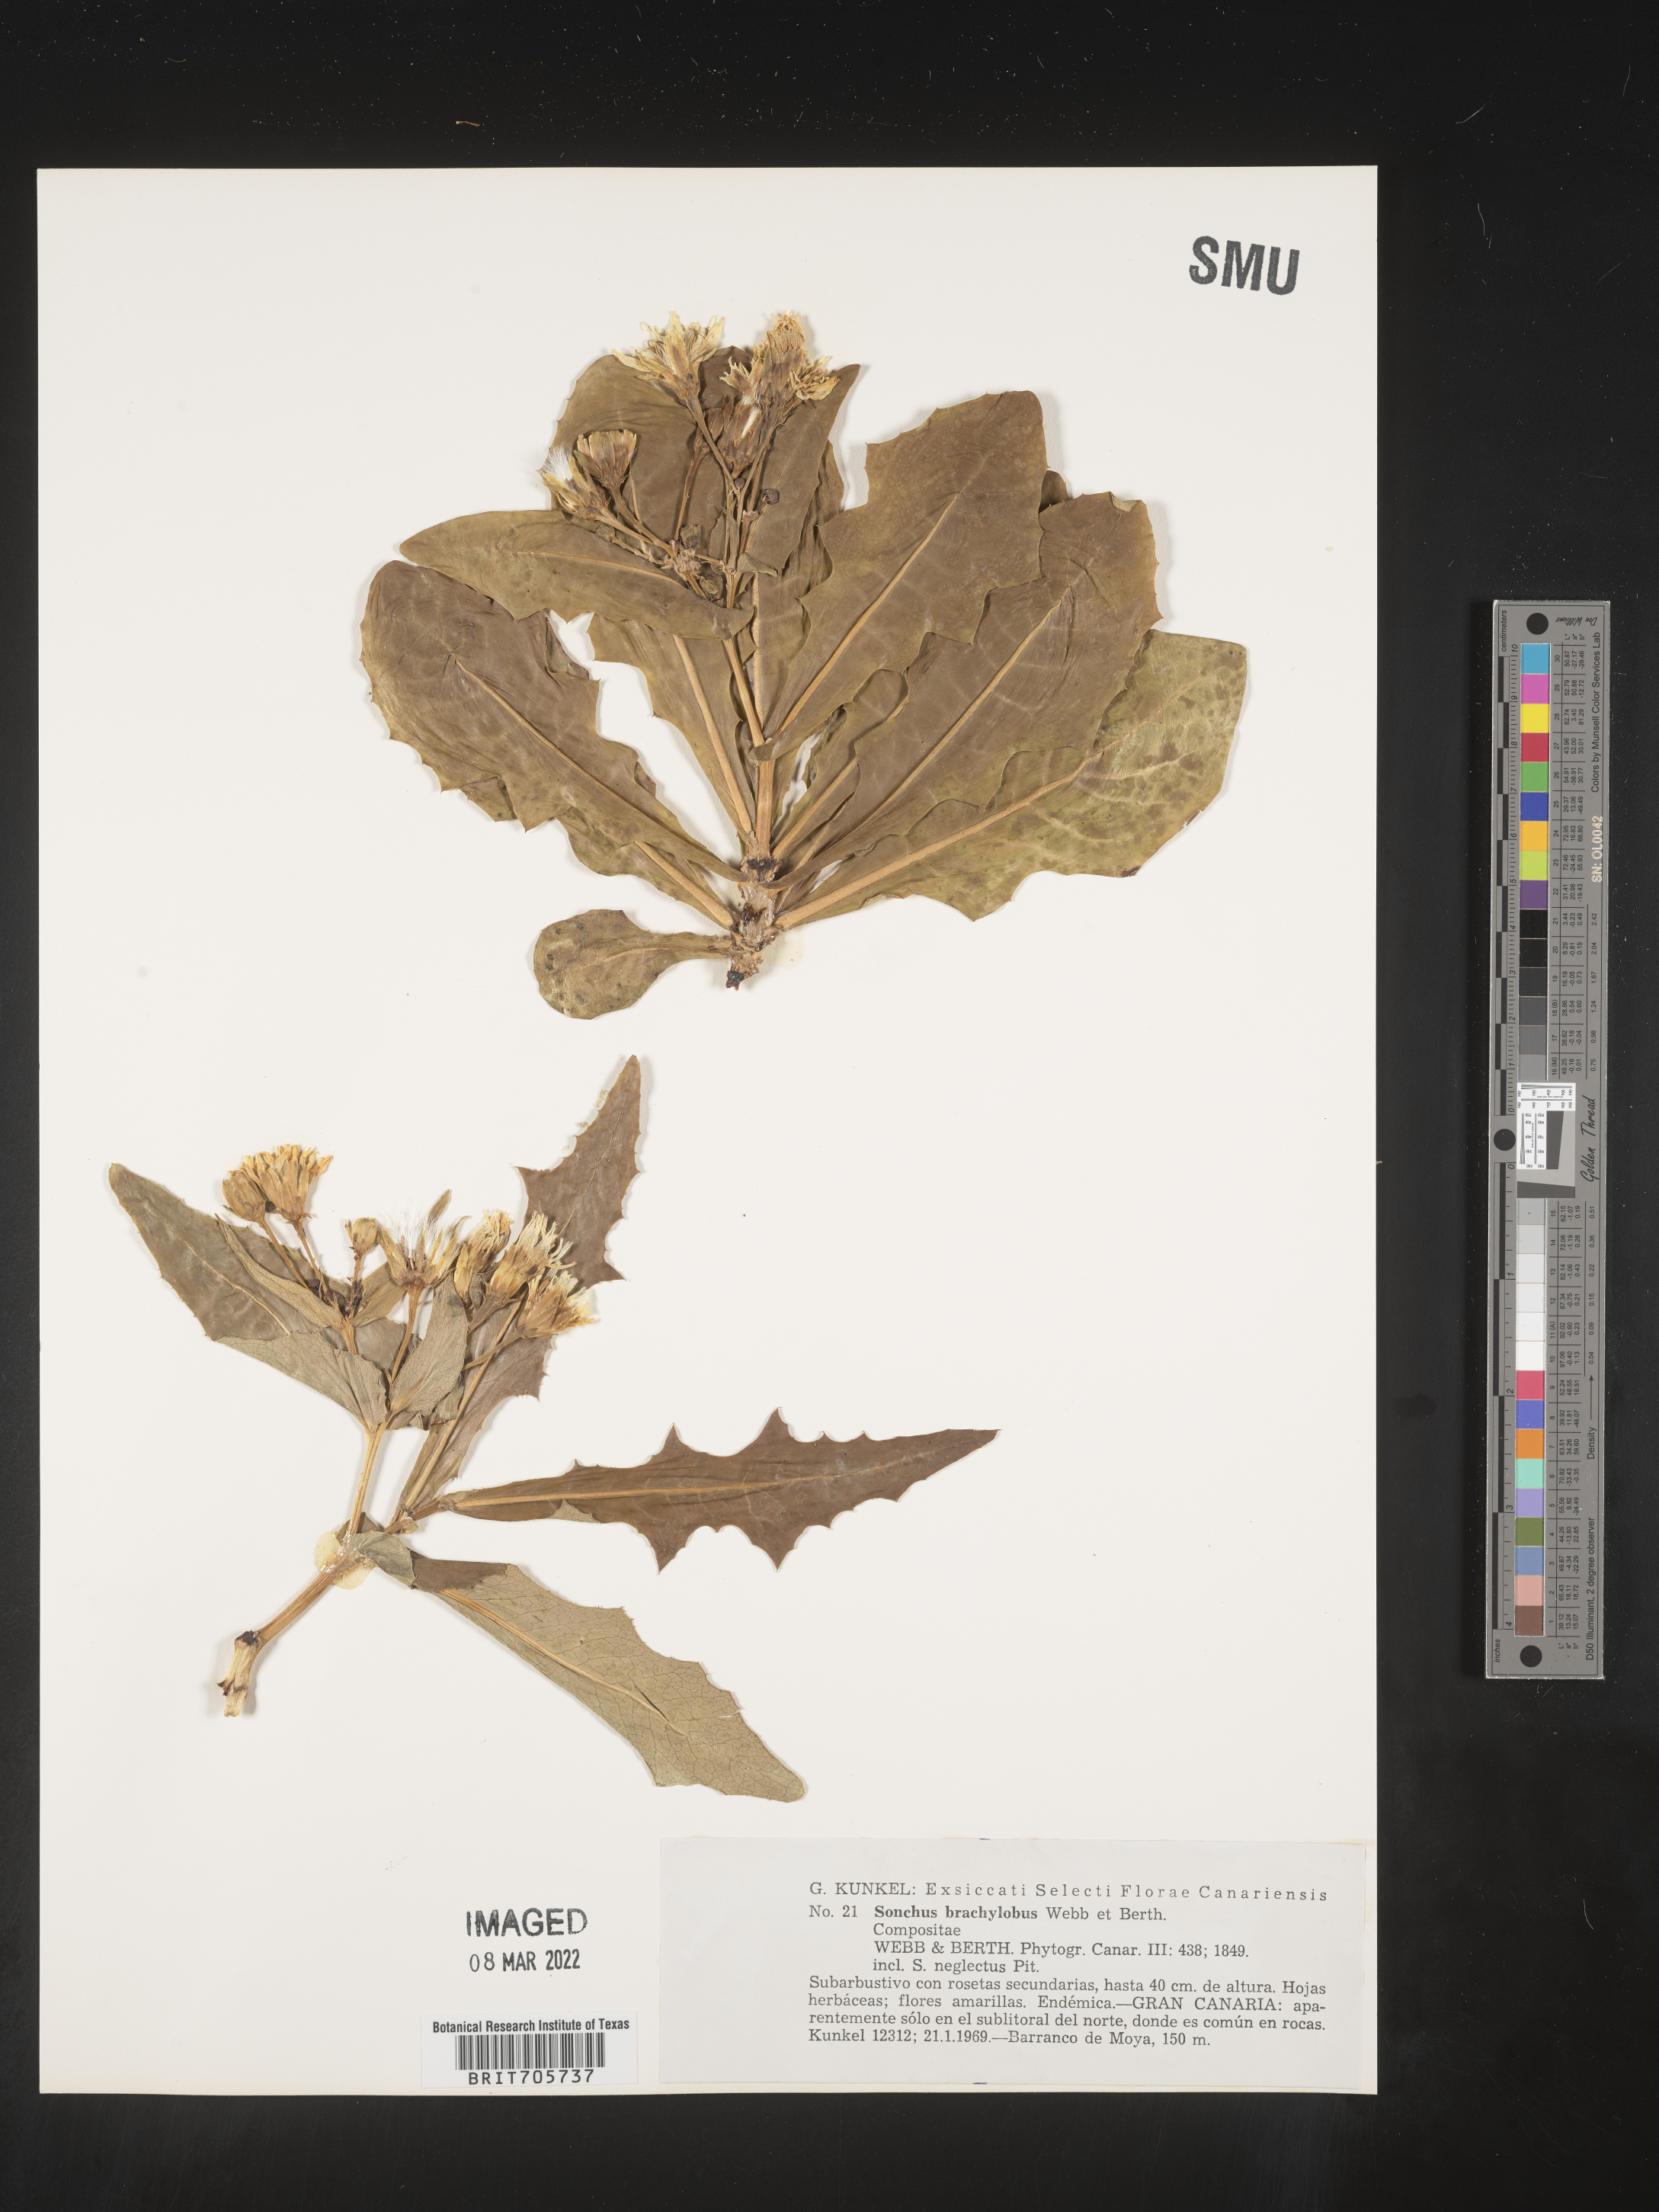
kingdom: Plantae
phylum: Tracheophyta
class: Magnoliopsida
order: Asterales
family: Asteraceae
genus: Sonchus
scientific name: Sonchus
